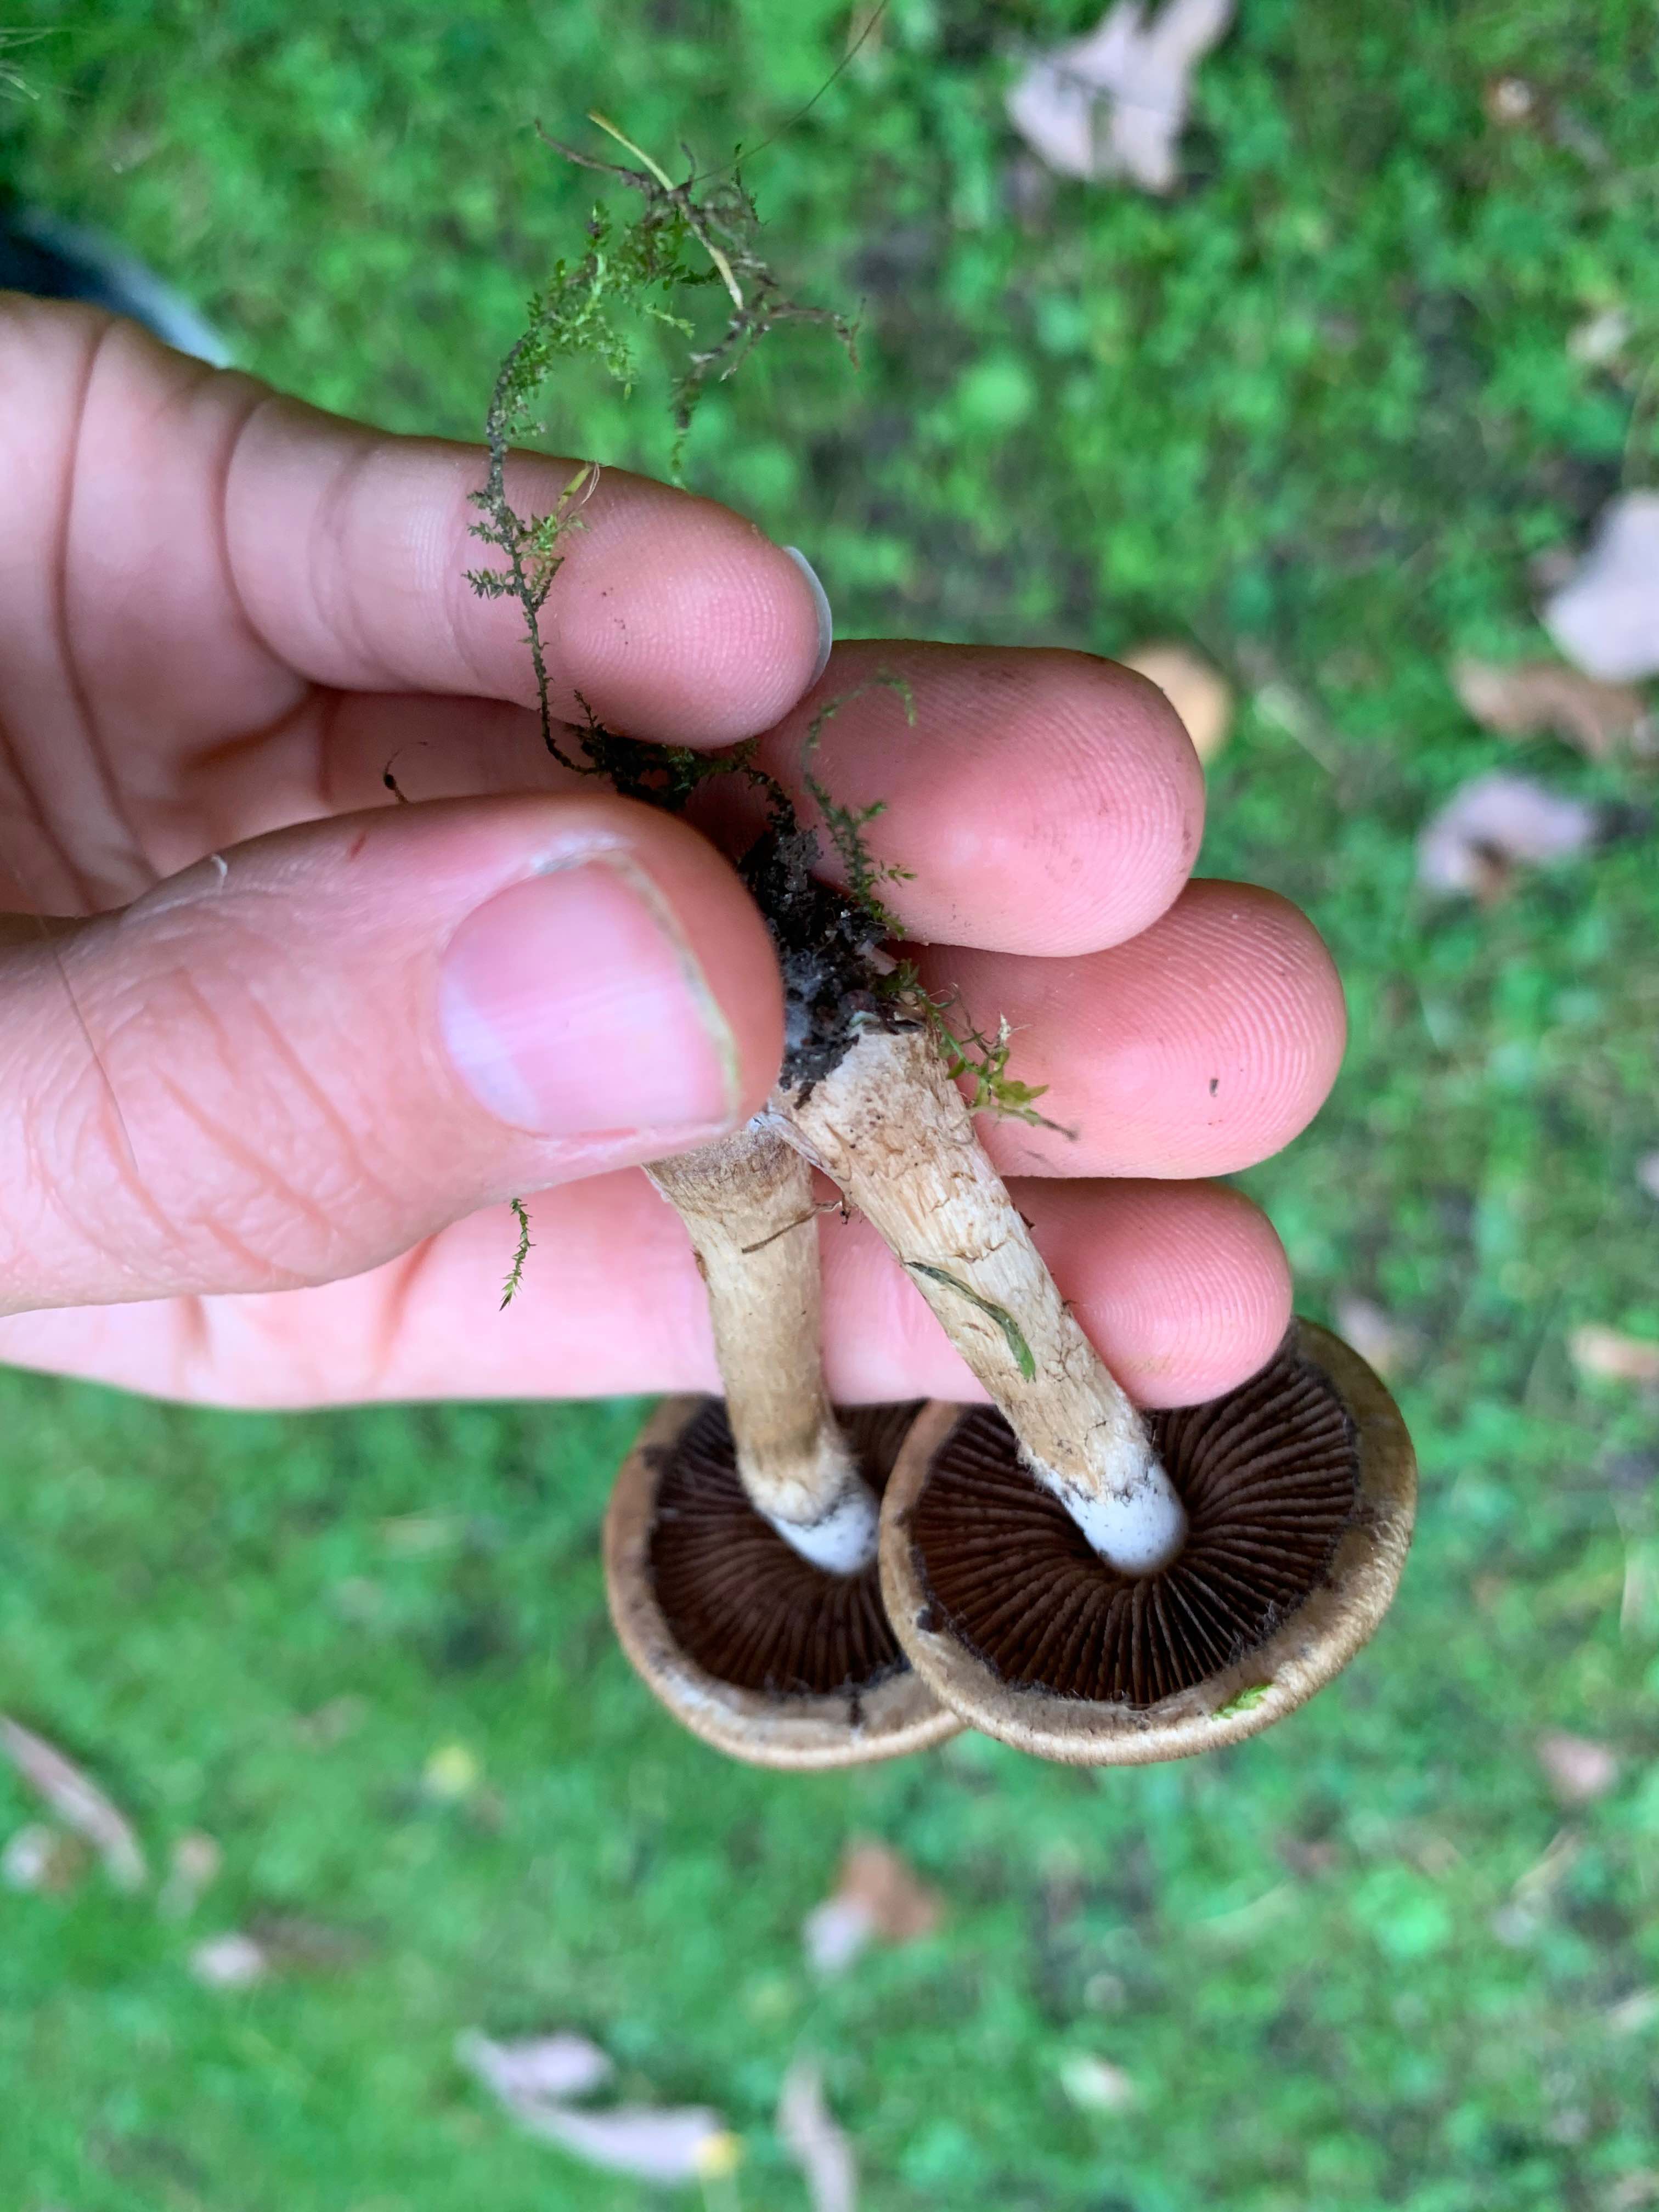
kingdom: Fungi
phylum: Basidiomycota
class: Agaricomycetes
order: Agaricales
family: Psathyrellaceae
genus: Lacrymaria
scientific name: Lacrymaria lacrymabunda
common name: grædende mørkhat
